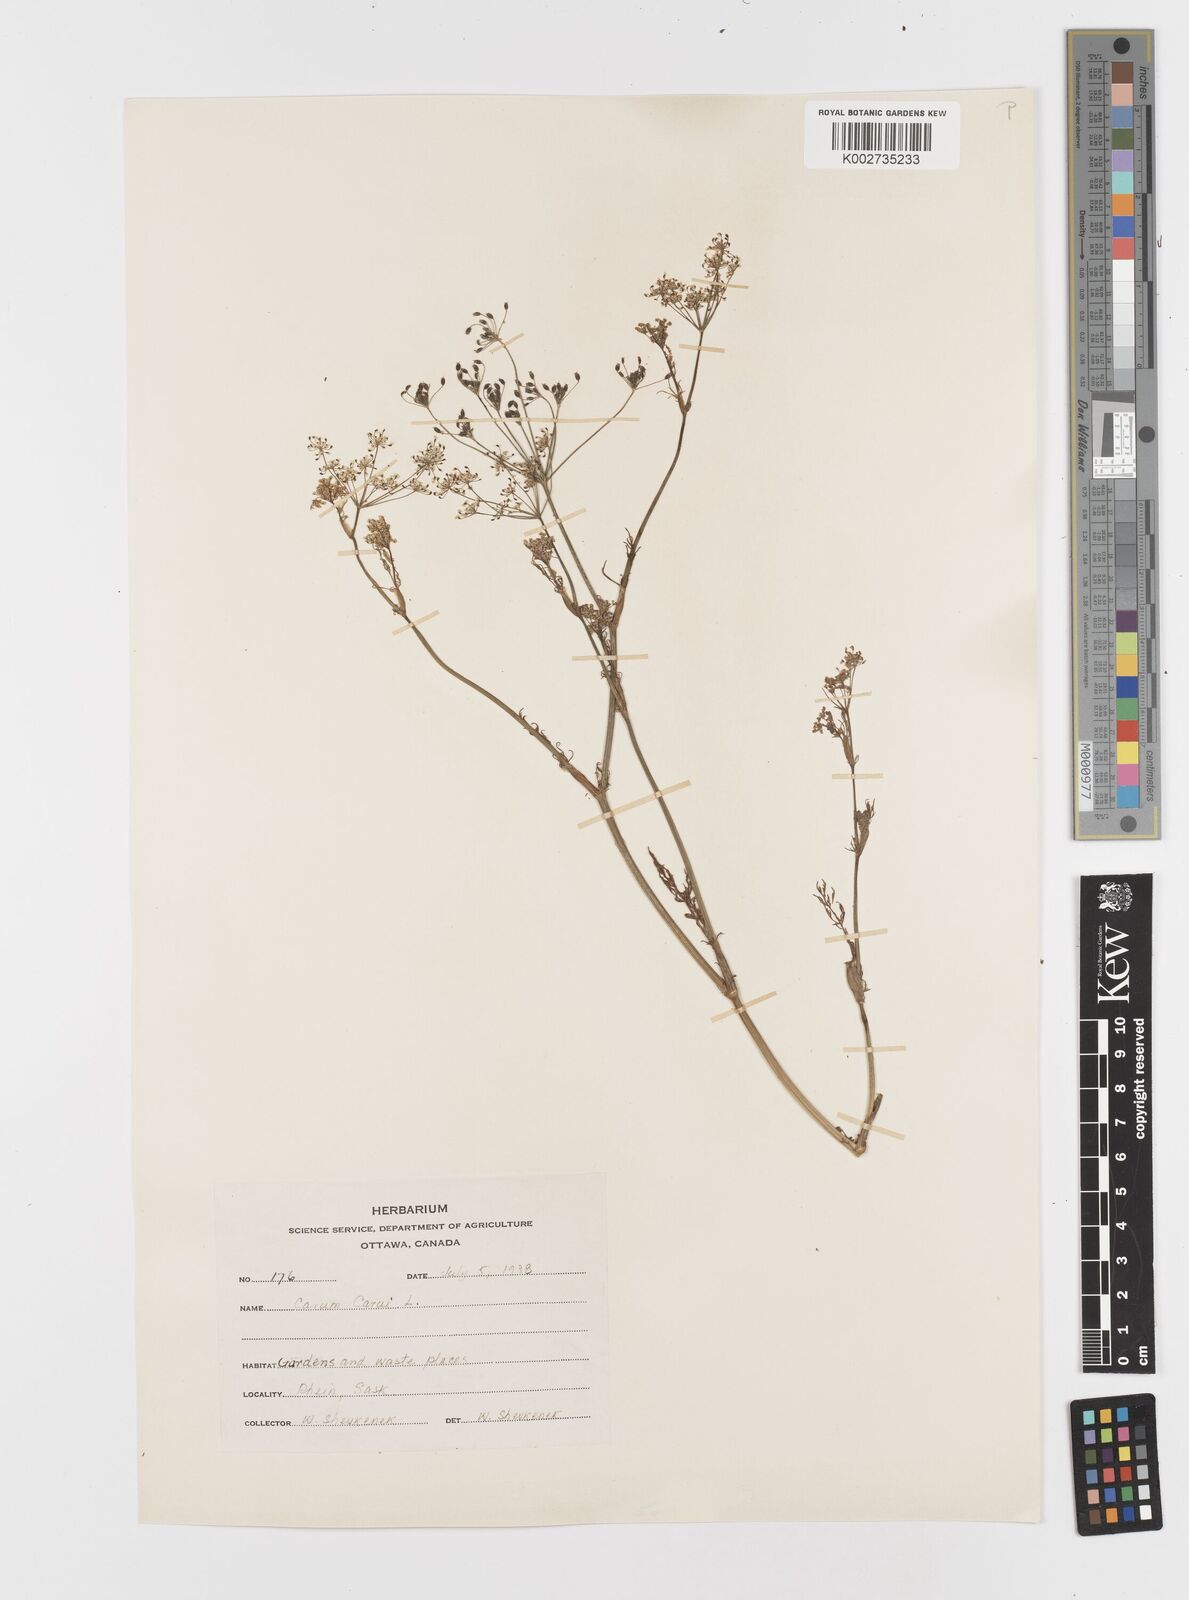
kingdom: Plantae
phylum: Tracheophyta
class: Magnoliopsida
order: Apiales
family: Apiaceae
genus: Petroselinum
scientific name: Petroselinum
